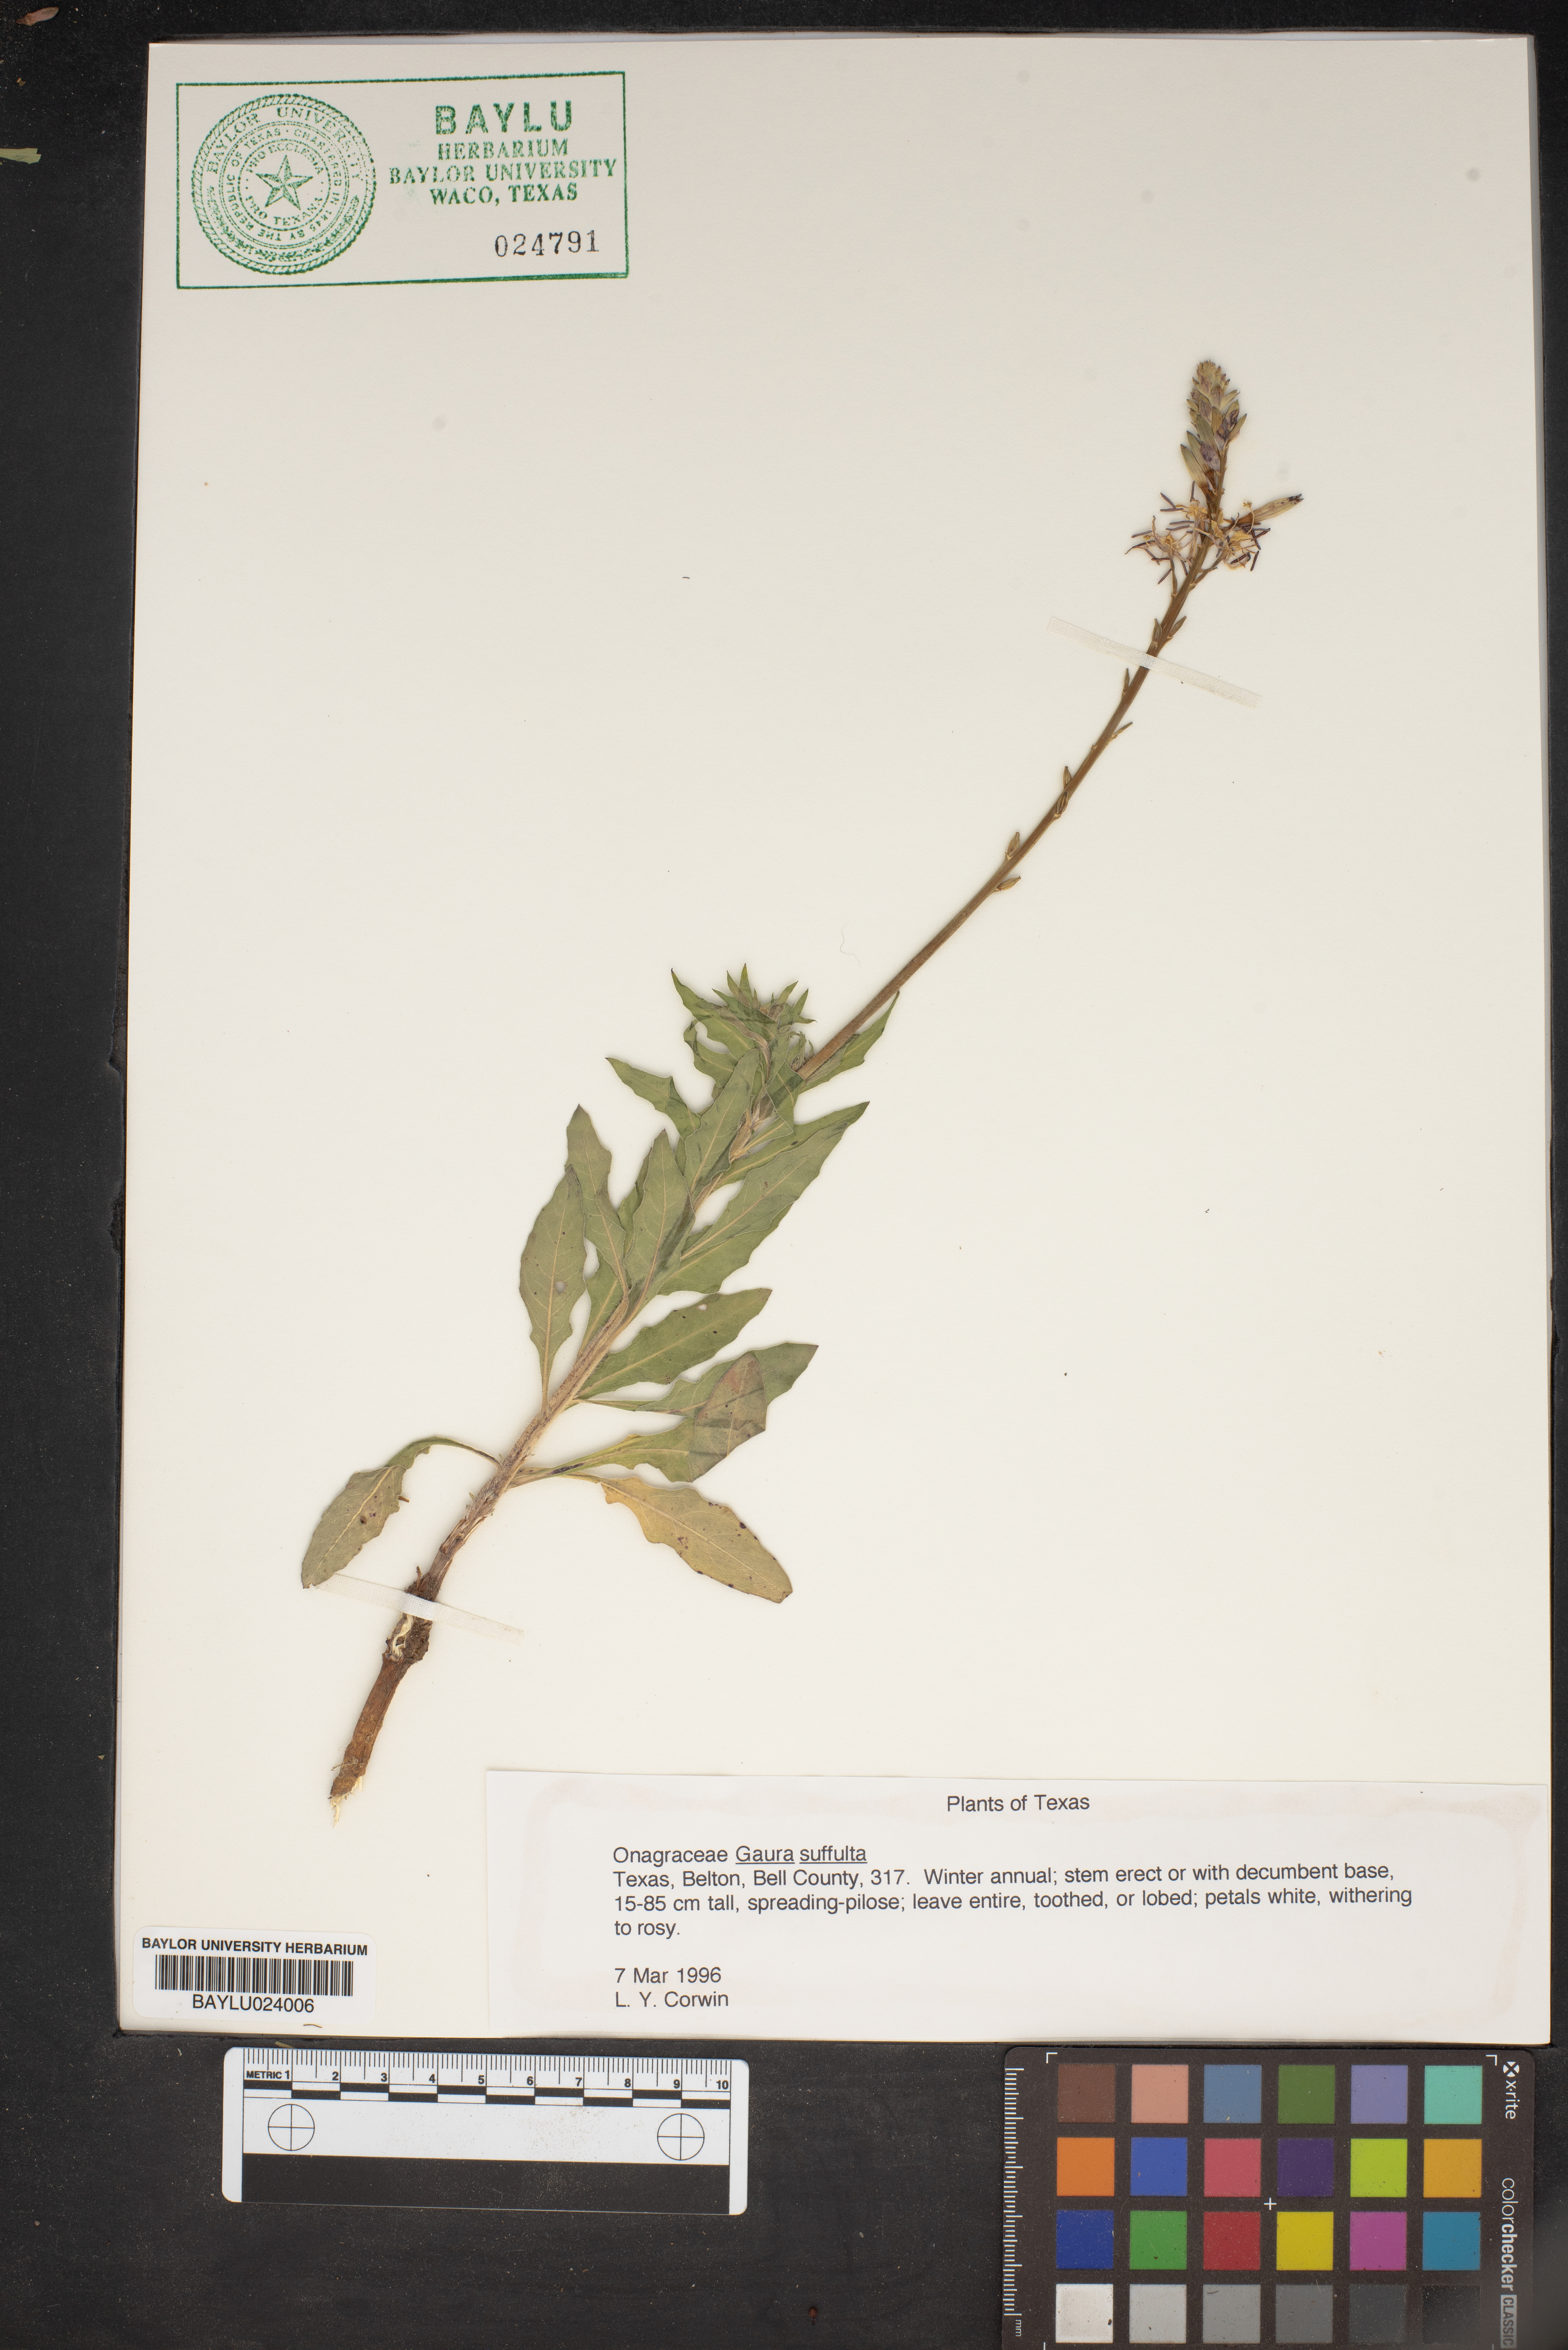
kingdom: Plantae
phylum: Tracheophyta
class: Magnoliopsida
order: Myrtales
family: Onagraceae
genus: Oenothera
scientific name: Oenothera Gaura suffulta
